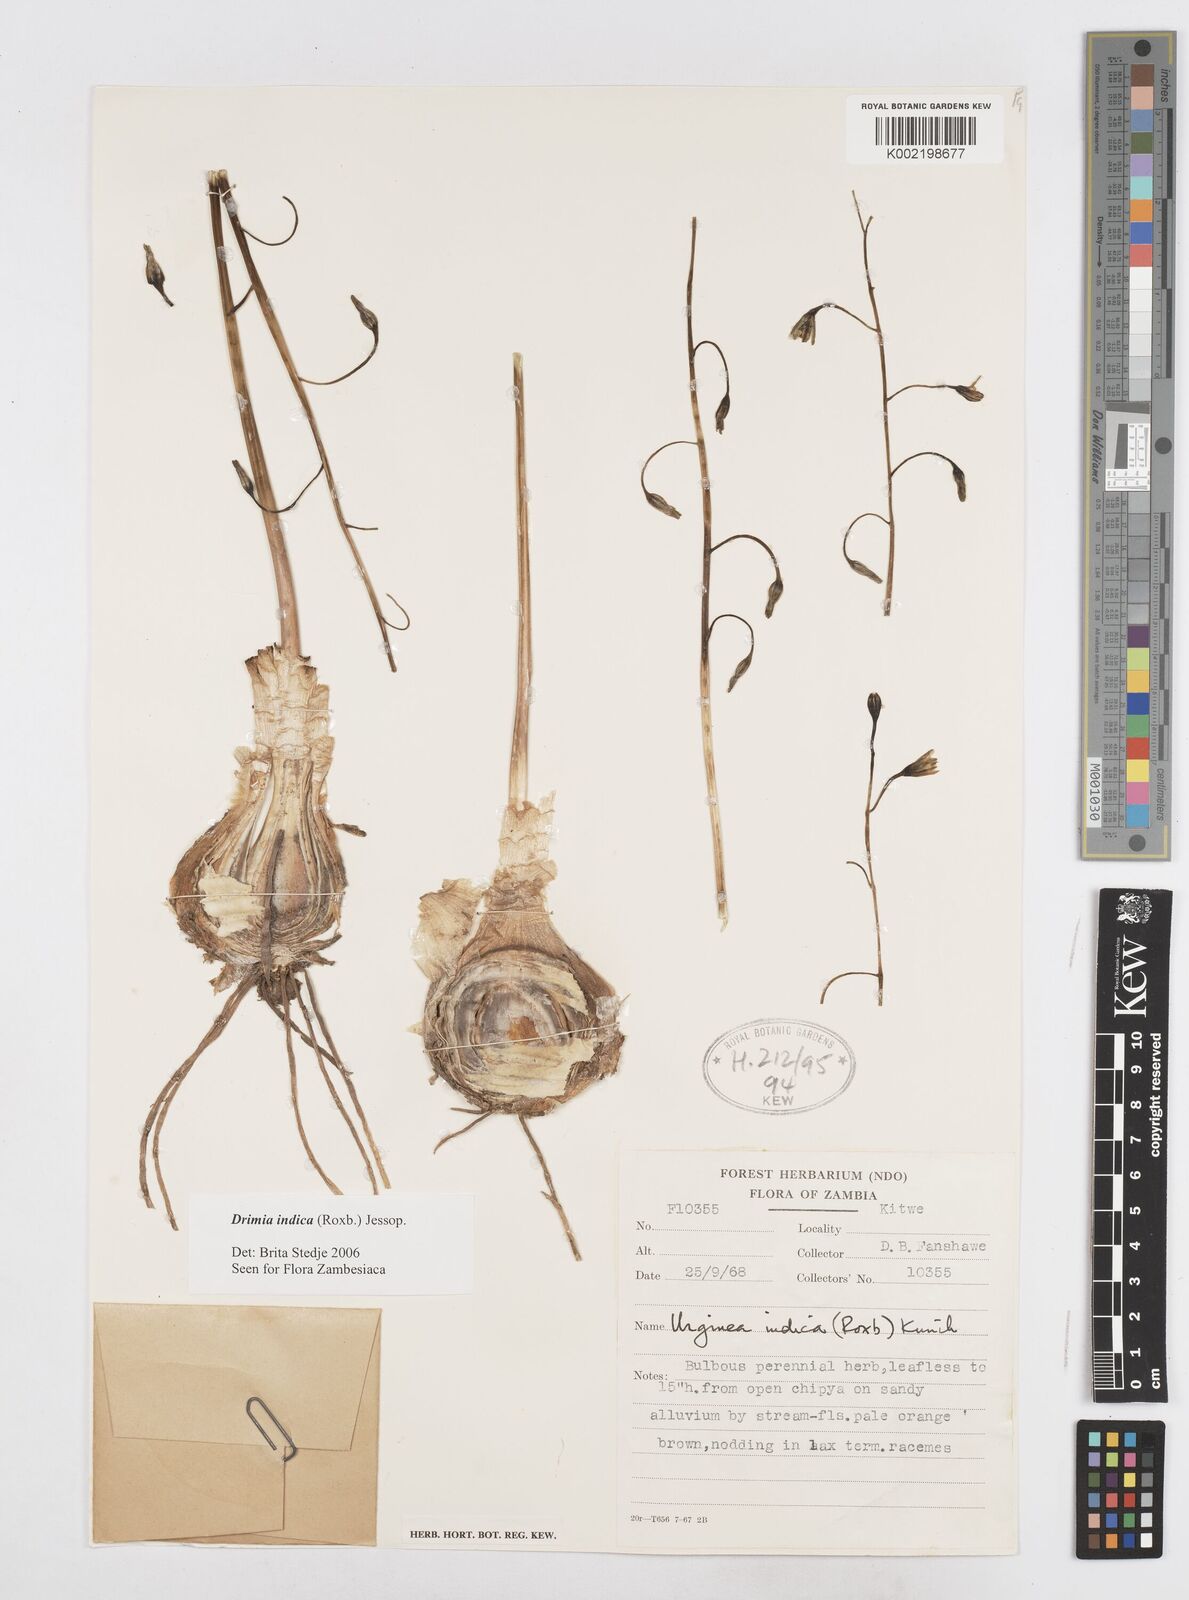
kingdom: Plantae
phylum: Tracheophyta
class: Liliopsida
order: Asparagales
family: Asparagaceae
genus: Drimia
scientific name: Drimia indica
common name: Indian-squill
